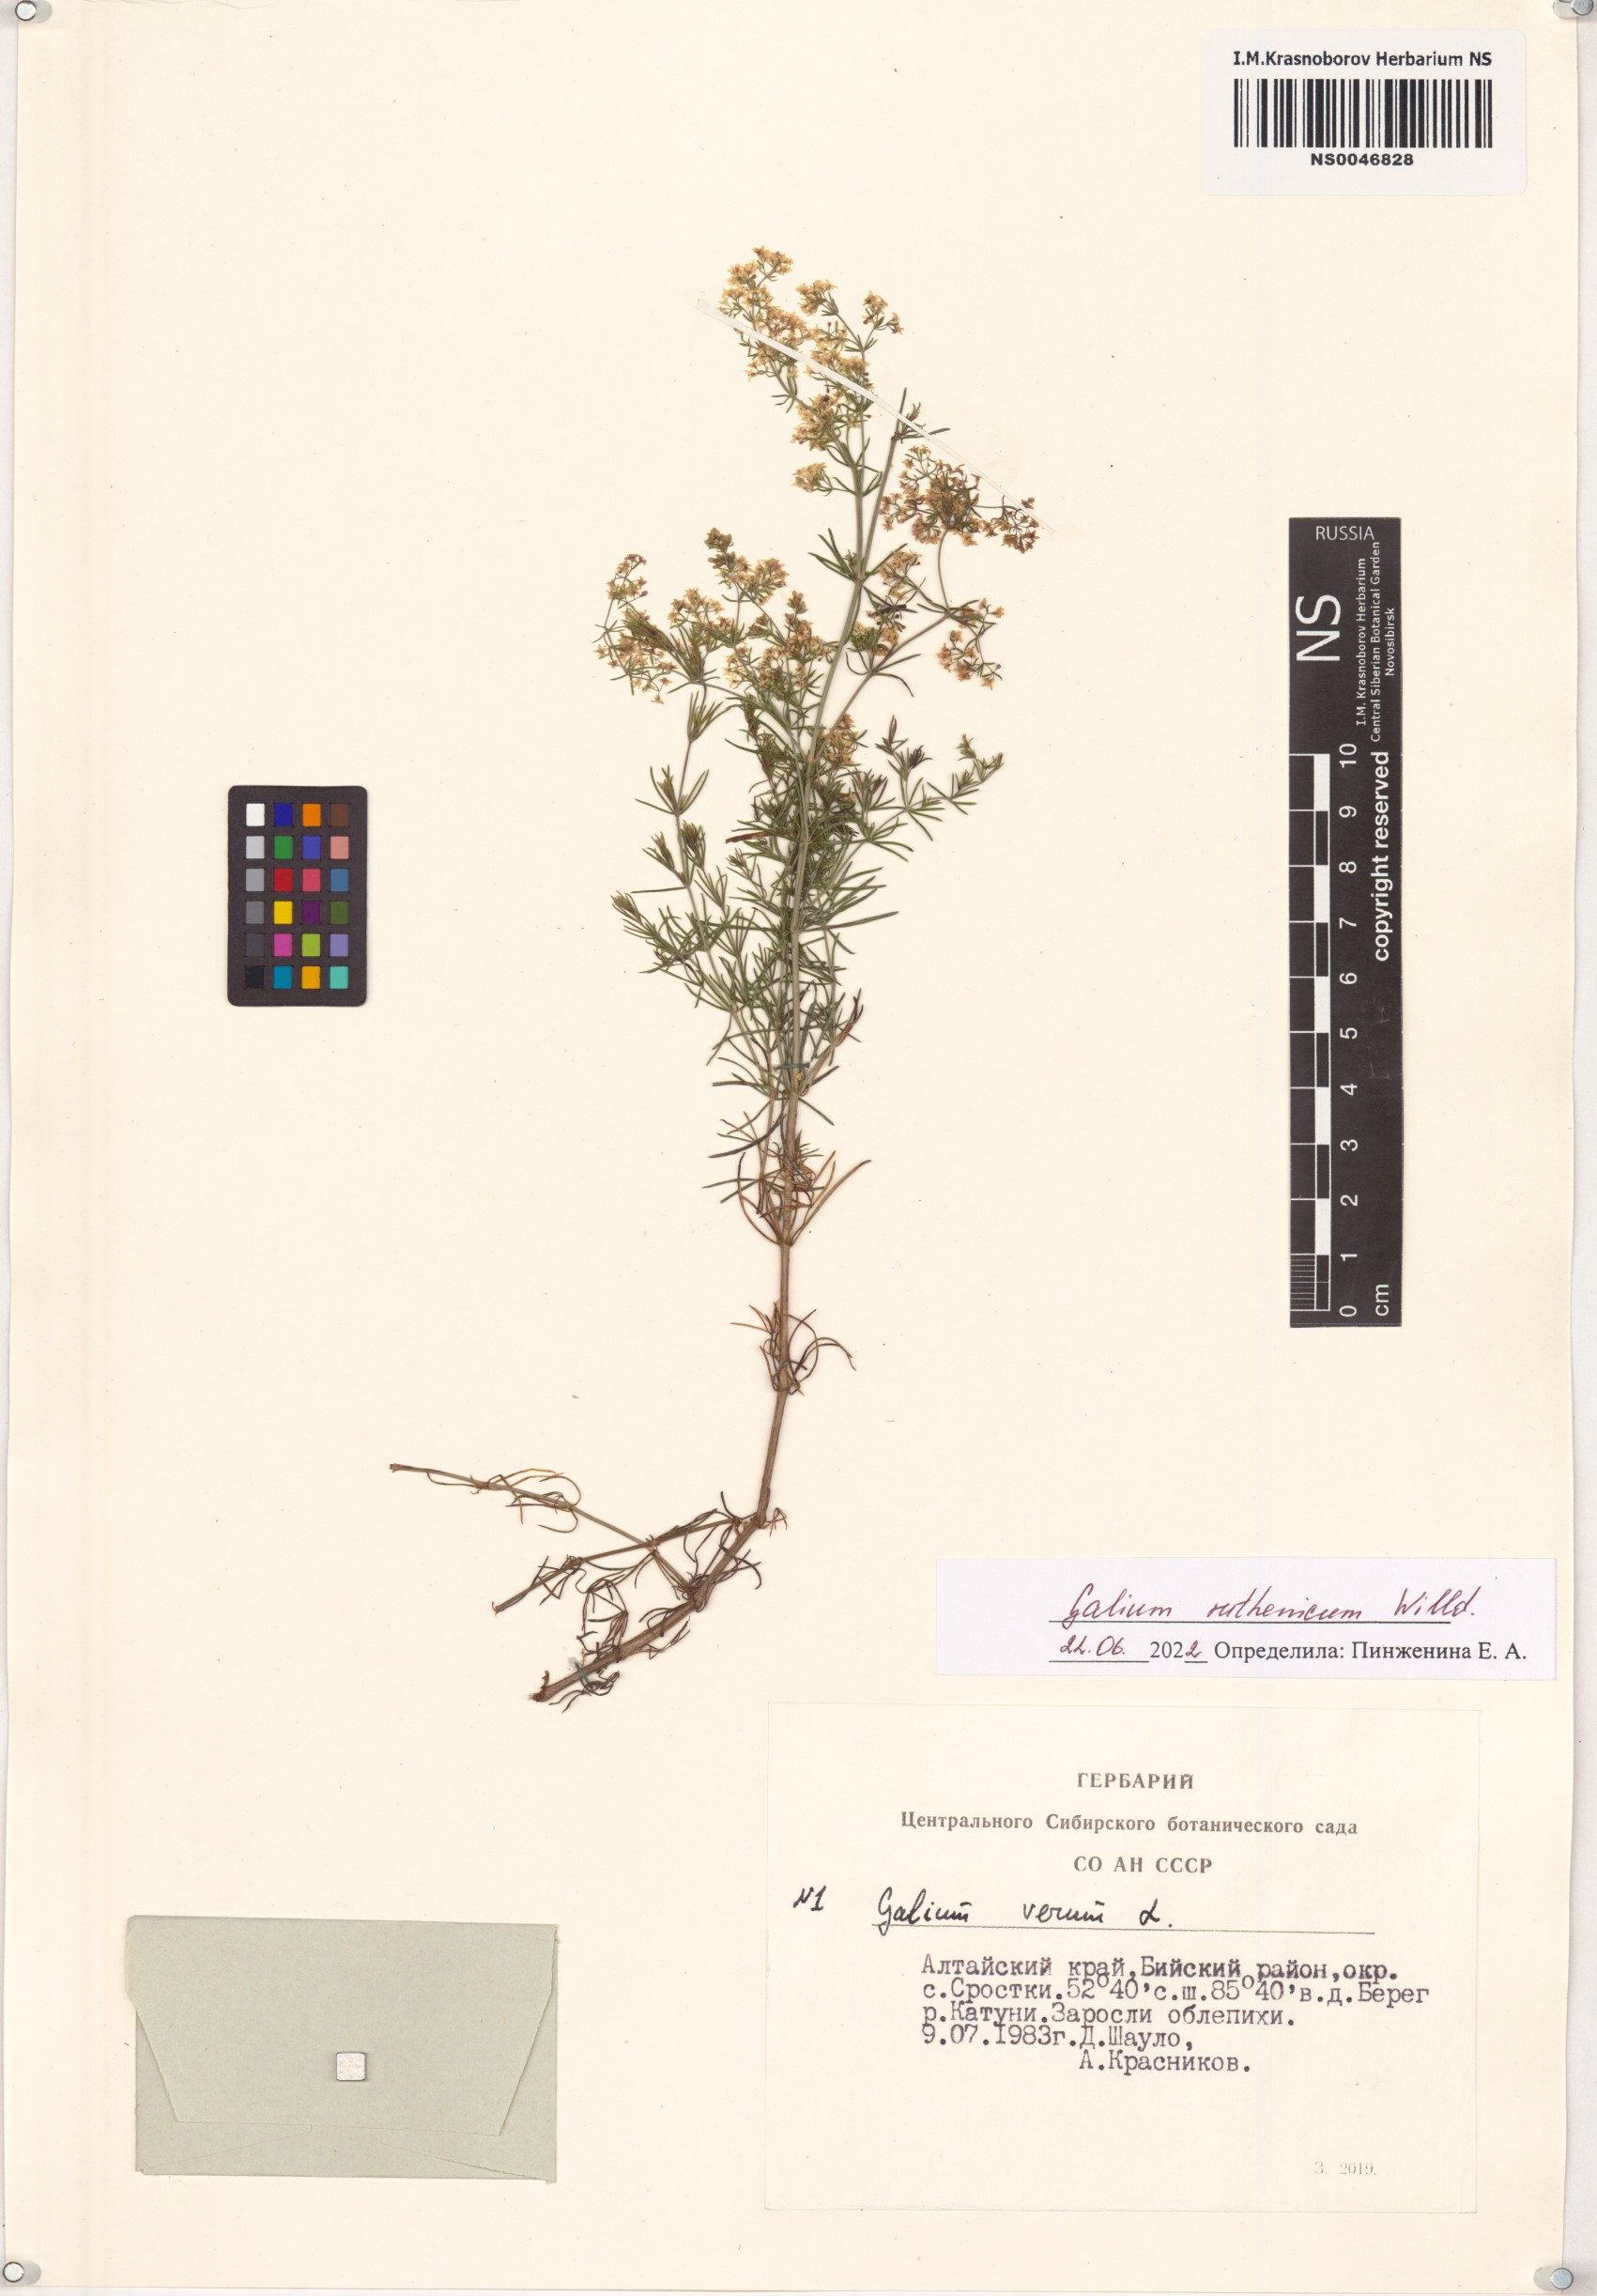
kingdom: Plantae
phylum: Tracheophyta
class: Magnoliopsida
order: Gentianales
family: Rubiaceae
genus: Galium
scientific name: Galium verum
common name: Lady's bedstraw
